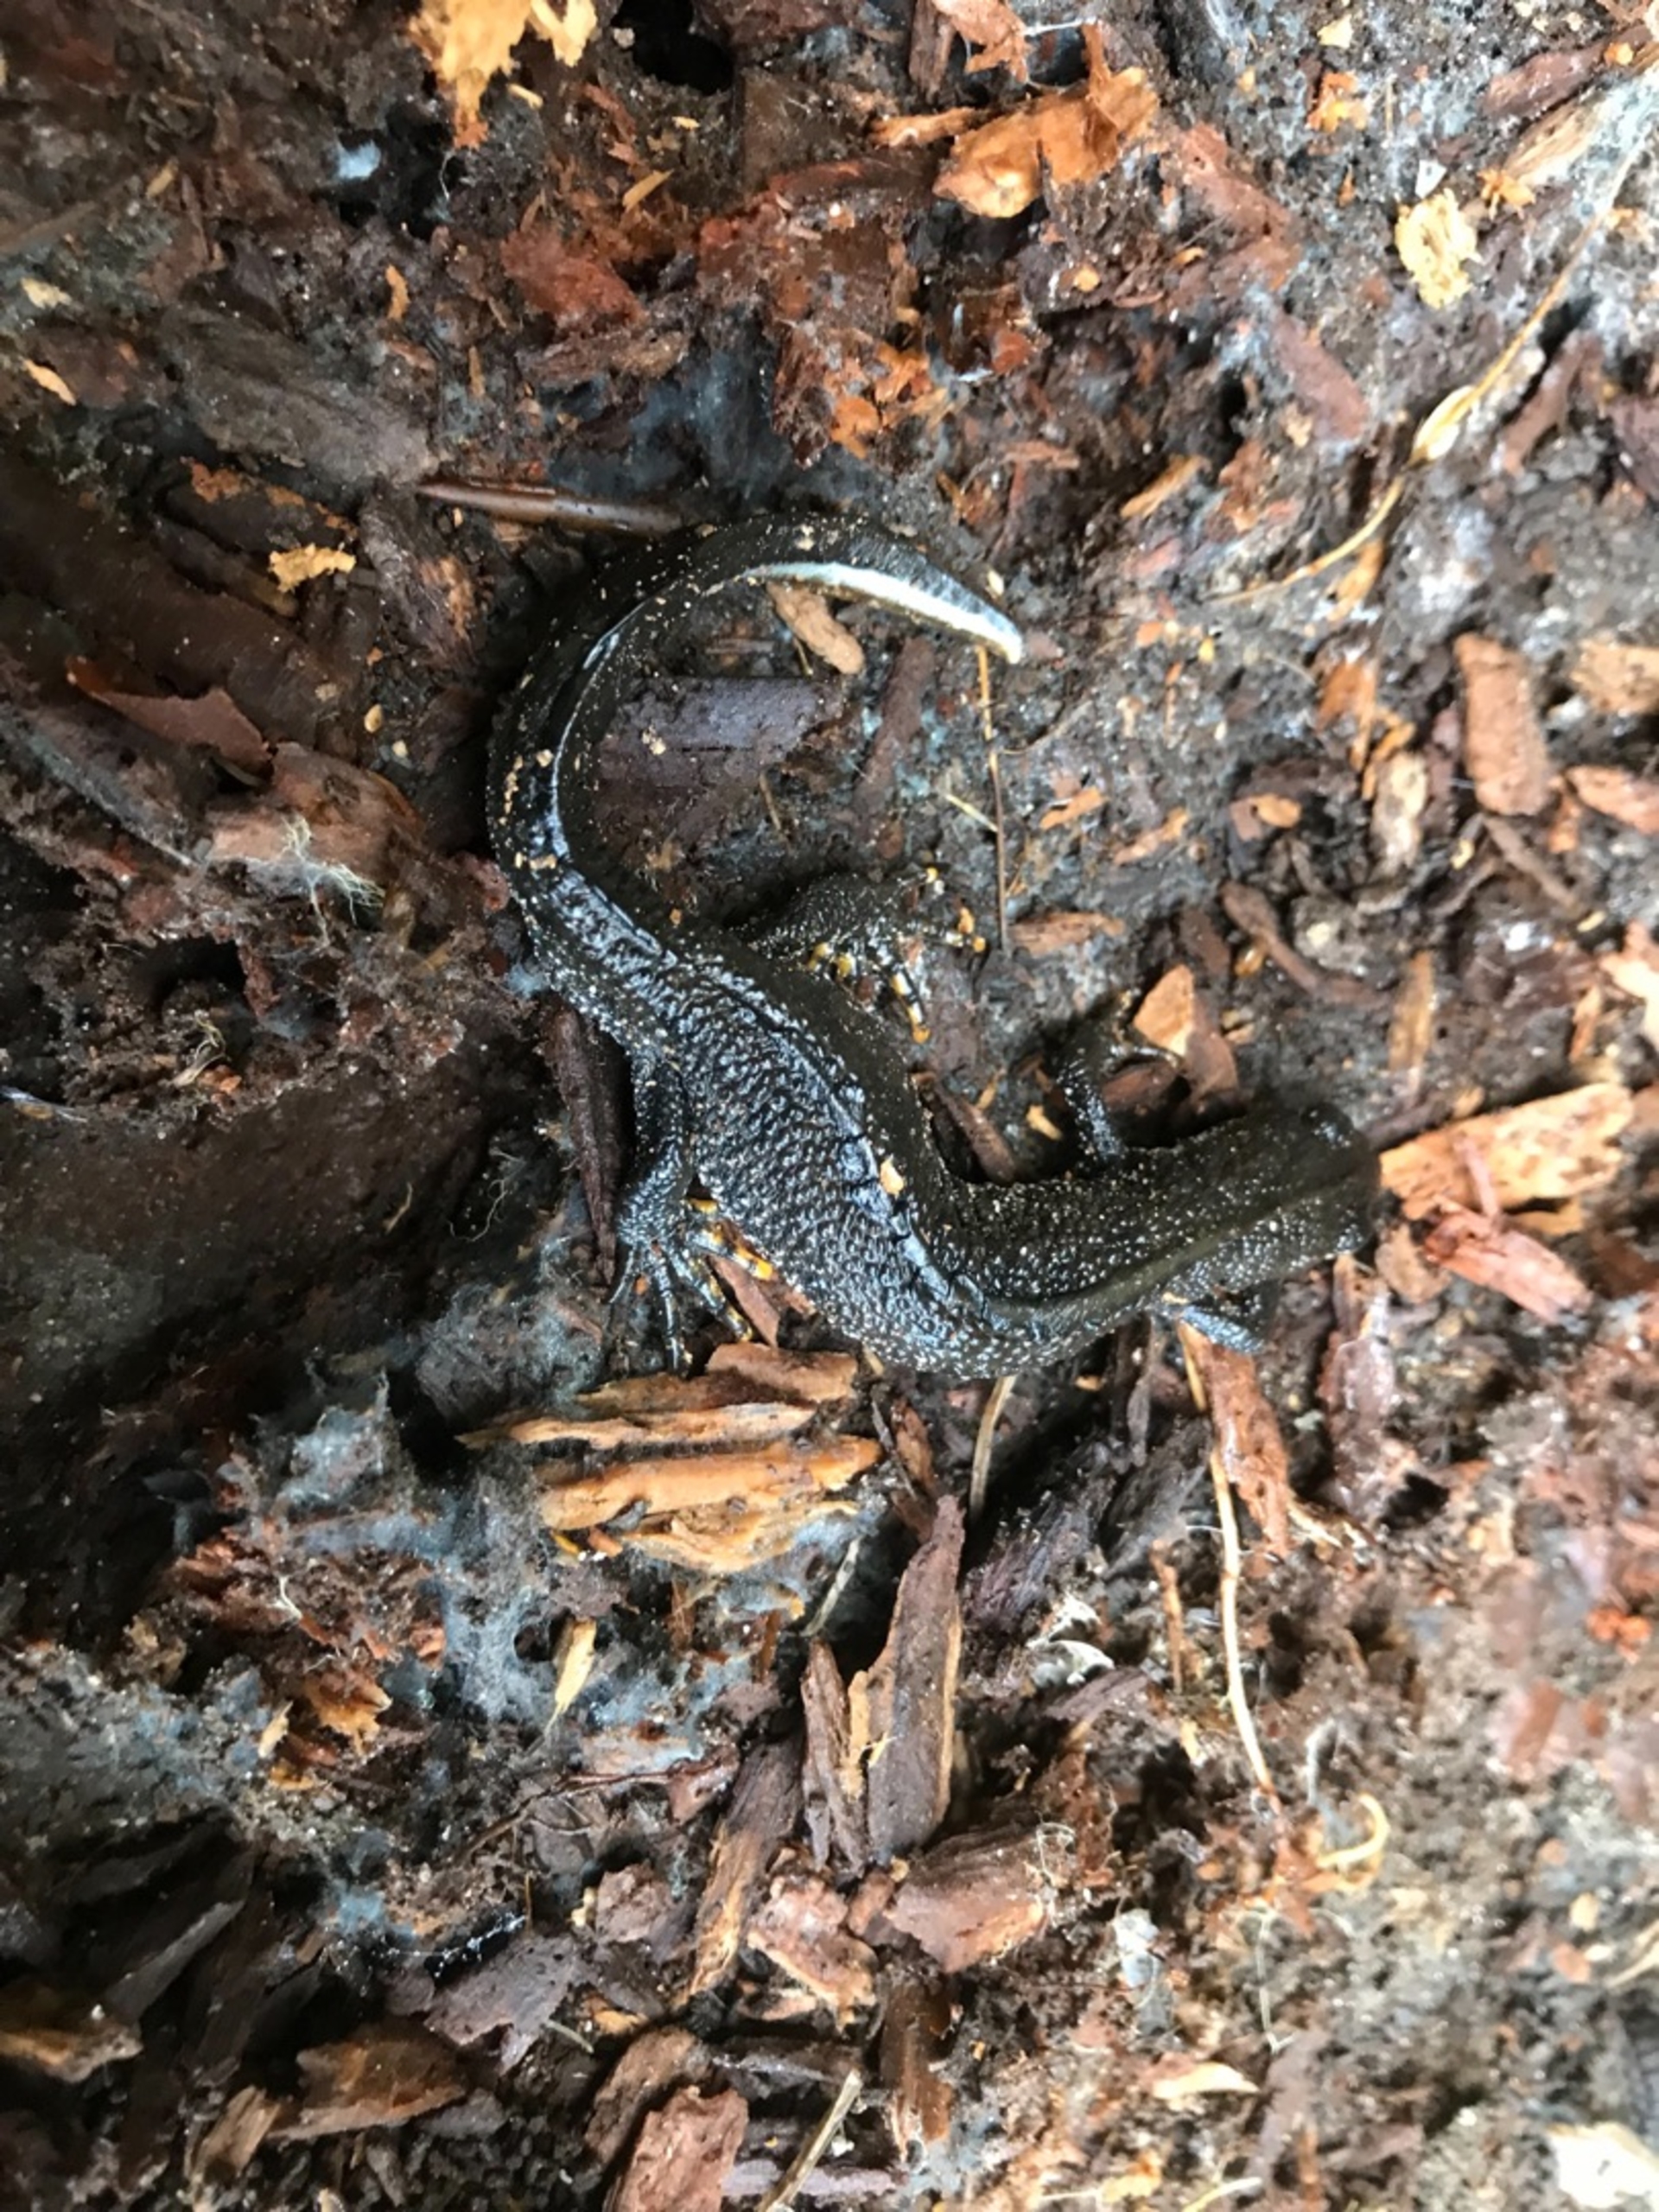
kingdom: Animalia
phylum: Chordata
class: Amphibia
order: Caudata
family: Salamandridae
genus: Triturus
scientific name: Triturus cristatus
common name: Stor vandsalamander
